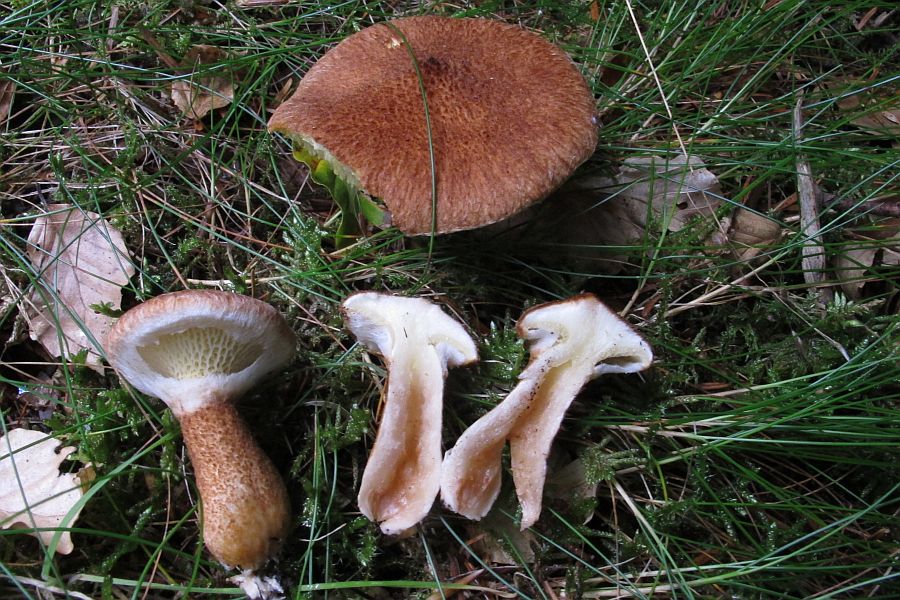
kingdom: Fungi
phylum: Basidiomycota
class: Agaricomycetes
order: Boletales
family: Suillaceae
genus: Suillus
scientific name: Suillus cavipes
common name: hulstokket slimrørhat
